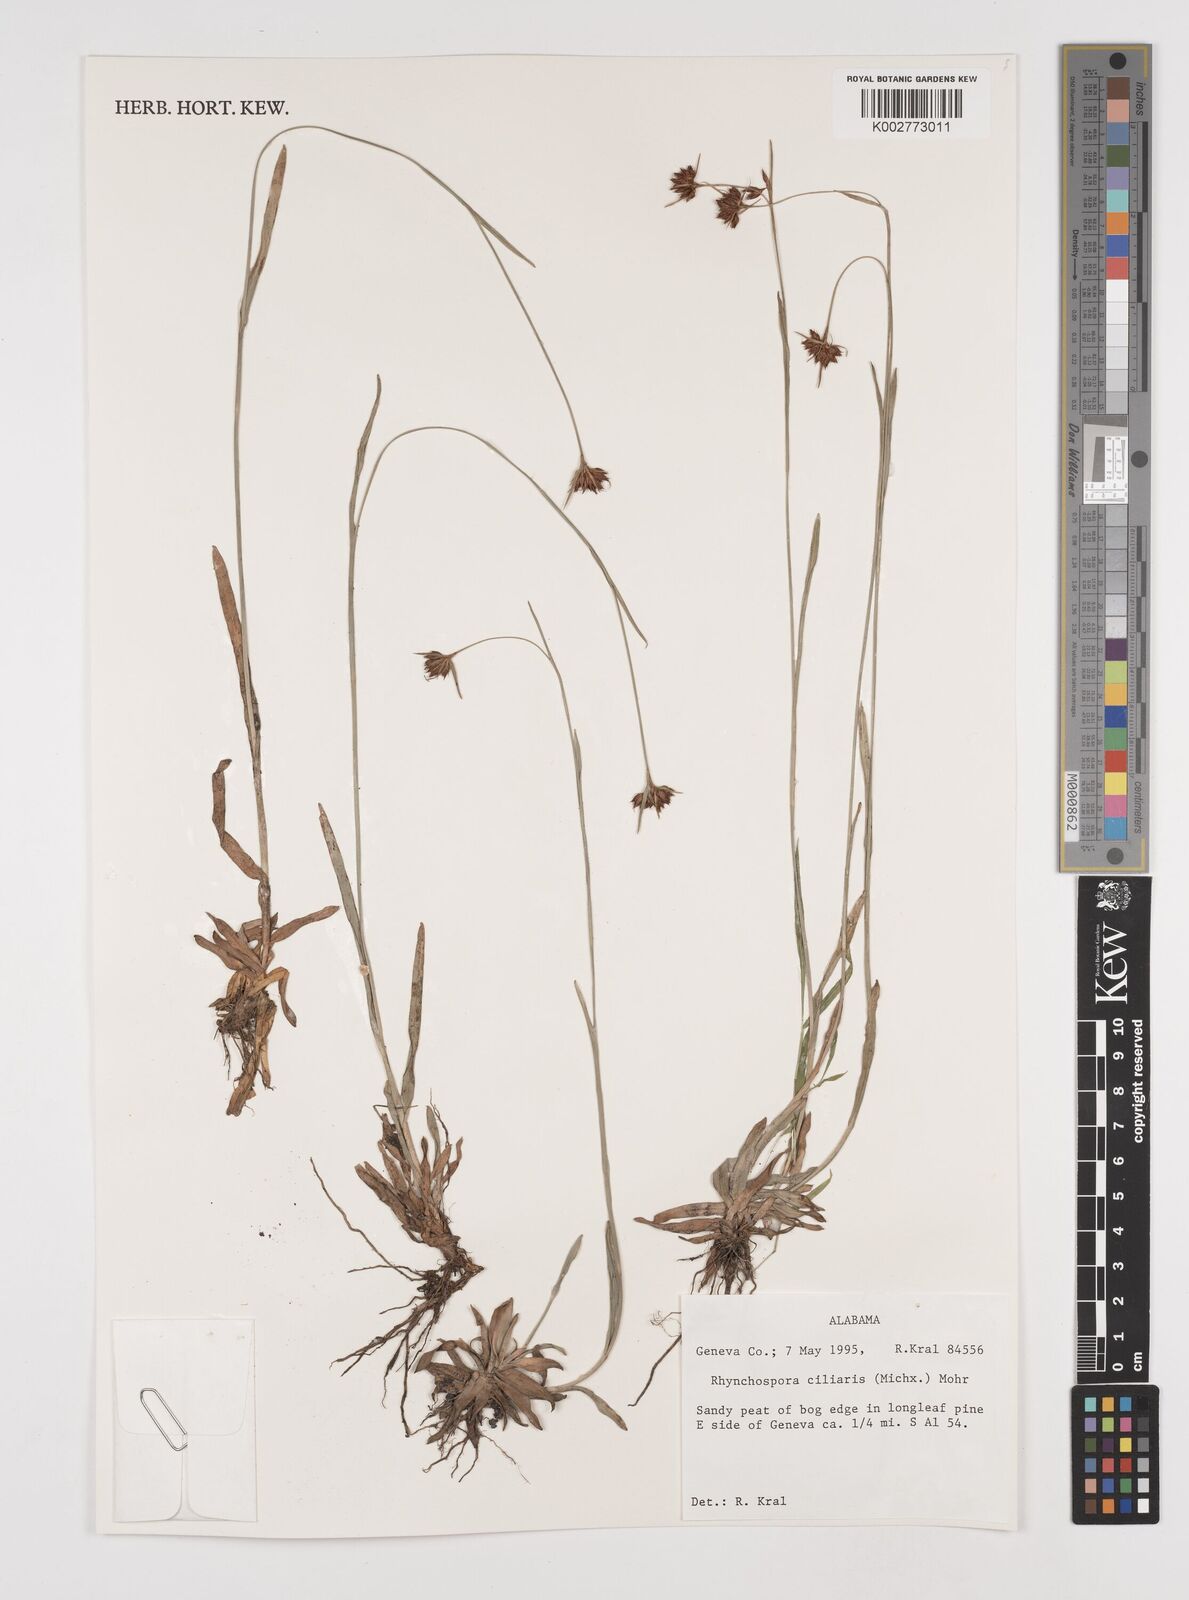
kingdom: Plantae
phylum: Tracheophyta
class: Liliopsida
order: Poales
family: Cyperaceae
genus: Rhynchospora
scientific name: Rhynchospora ciliaris
